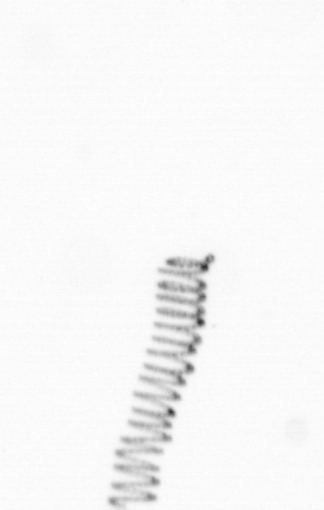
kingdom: Chromista
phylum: Ochrophyta
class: Bacillariophyceae
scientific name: Bacillariophyceae
